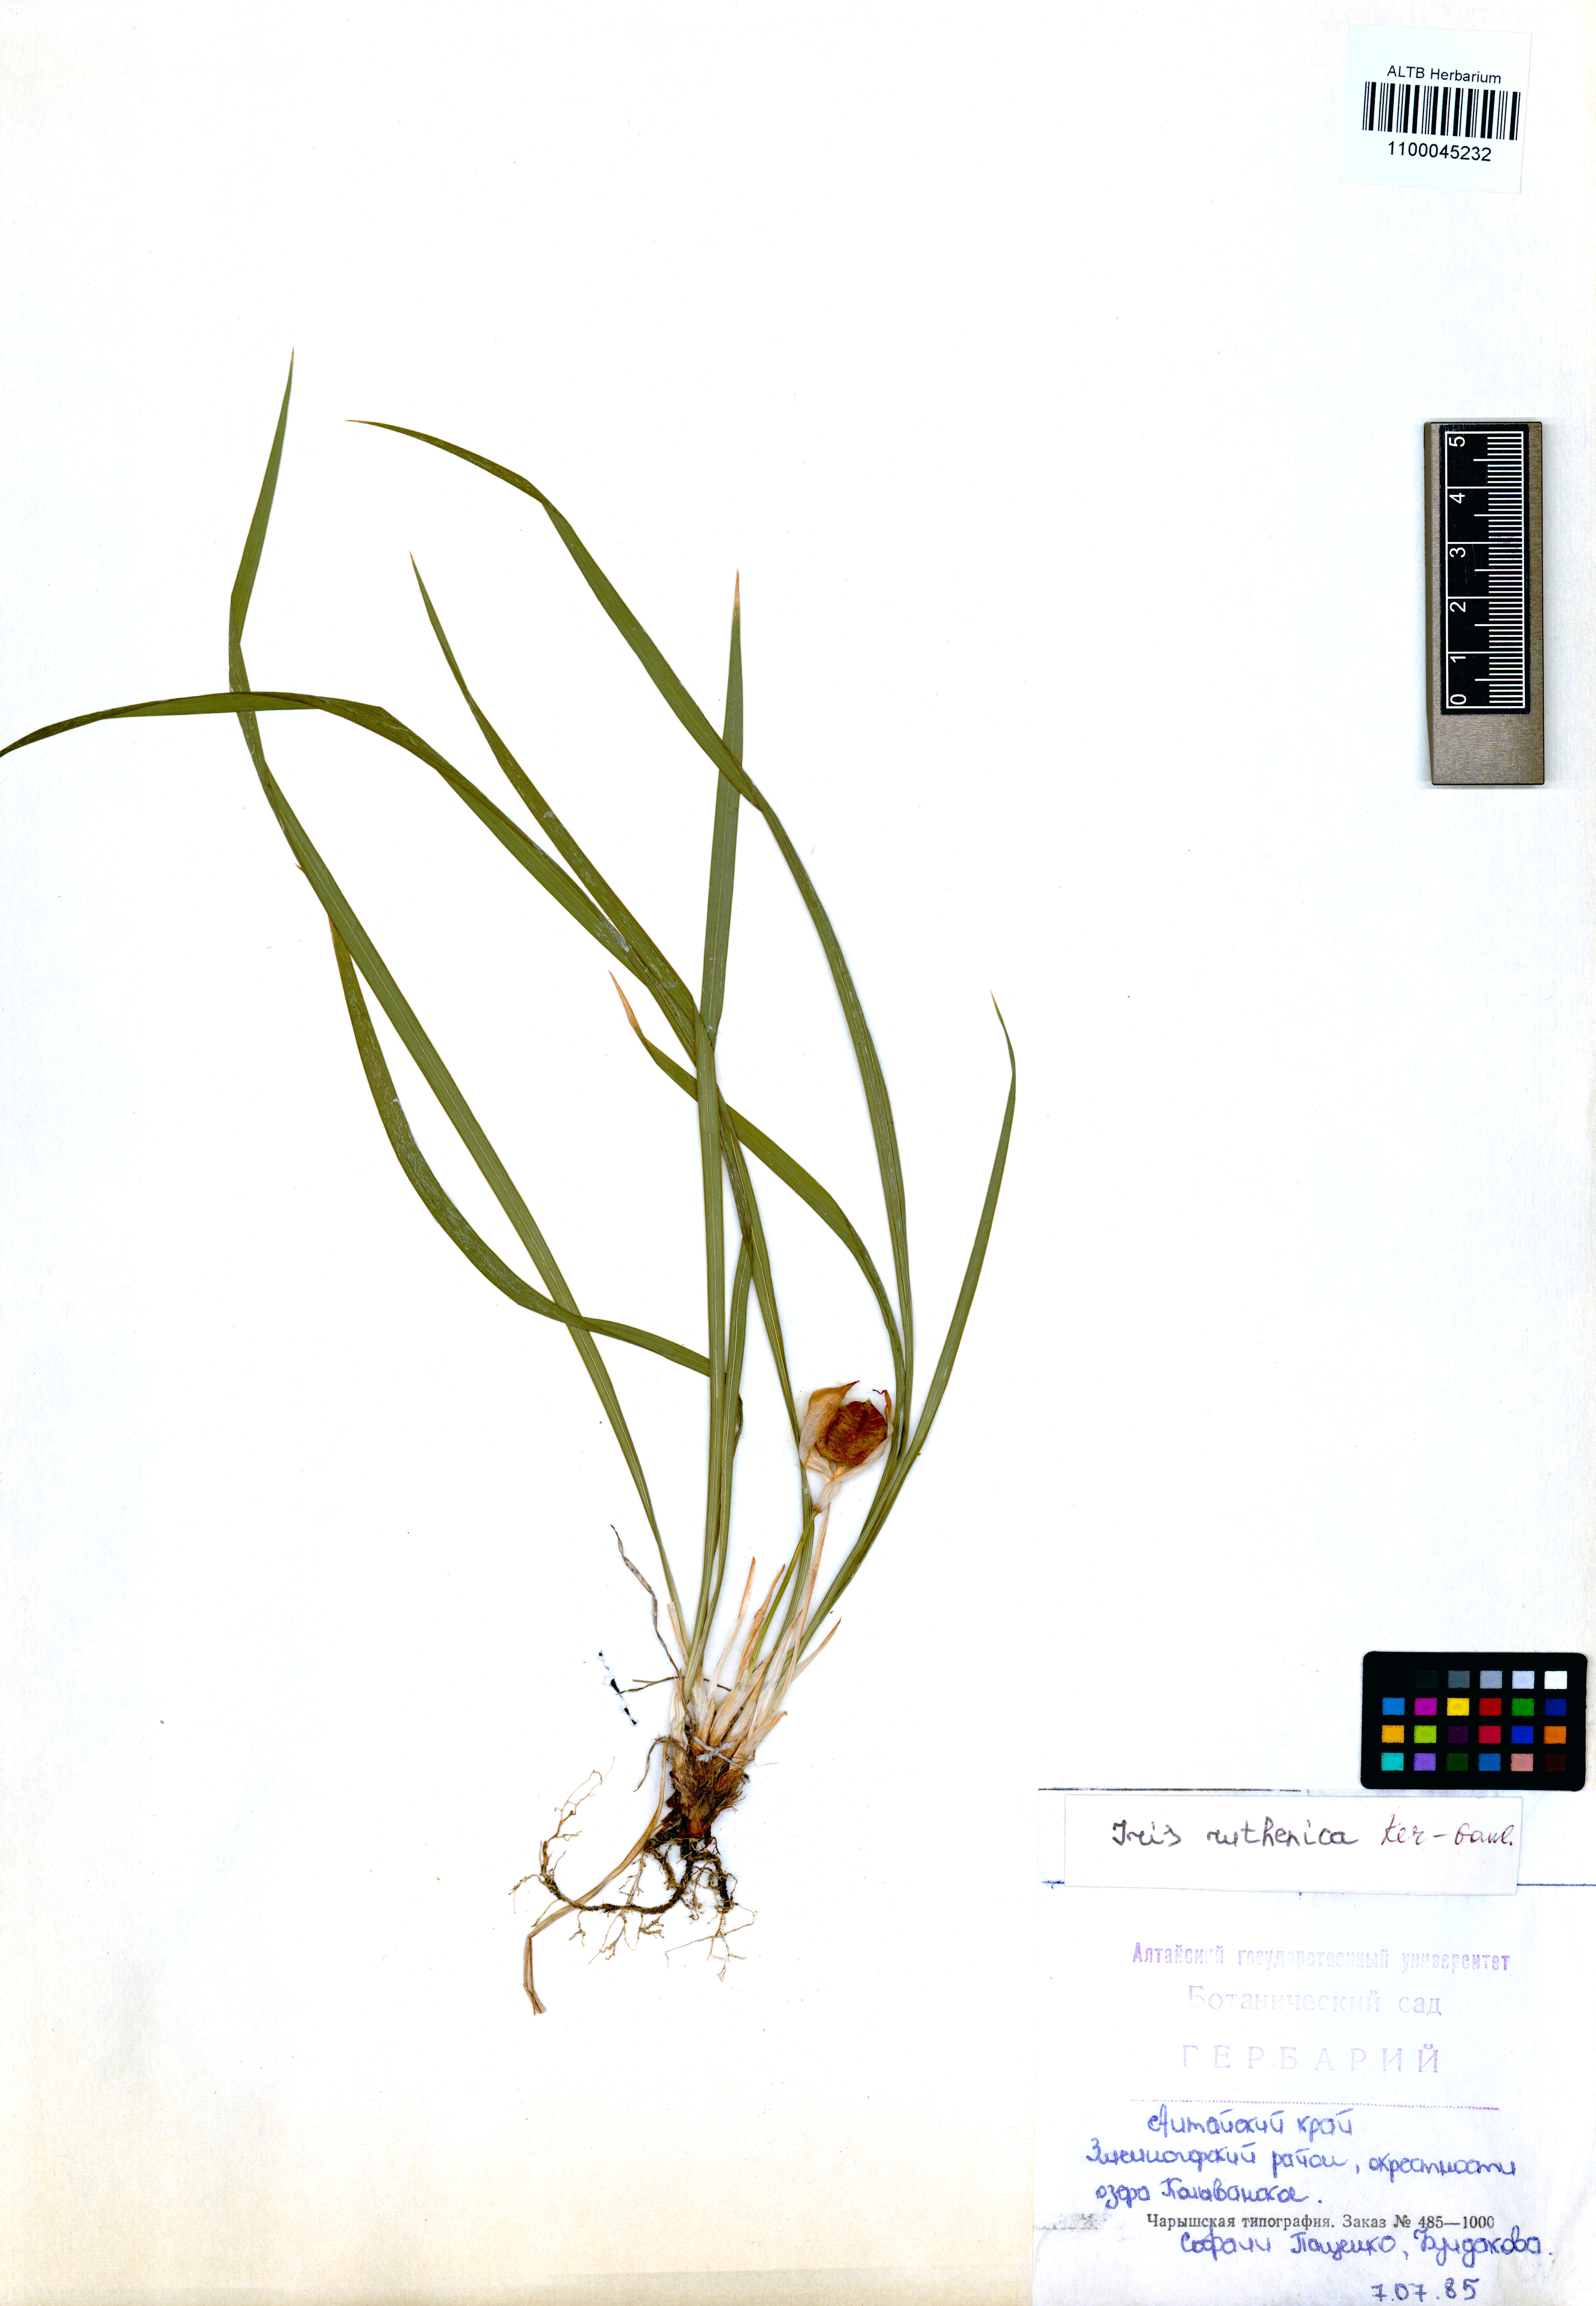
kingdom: Plantae
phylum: Tracheophyta
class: Liliopsida
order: Asparagales
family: Iridaceae
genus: Iris
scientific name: Iris ruthenica
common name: Purple-bract iris
